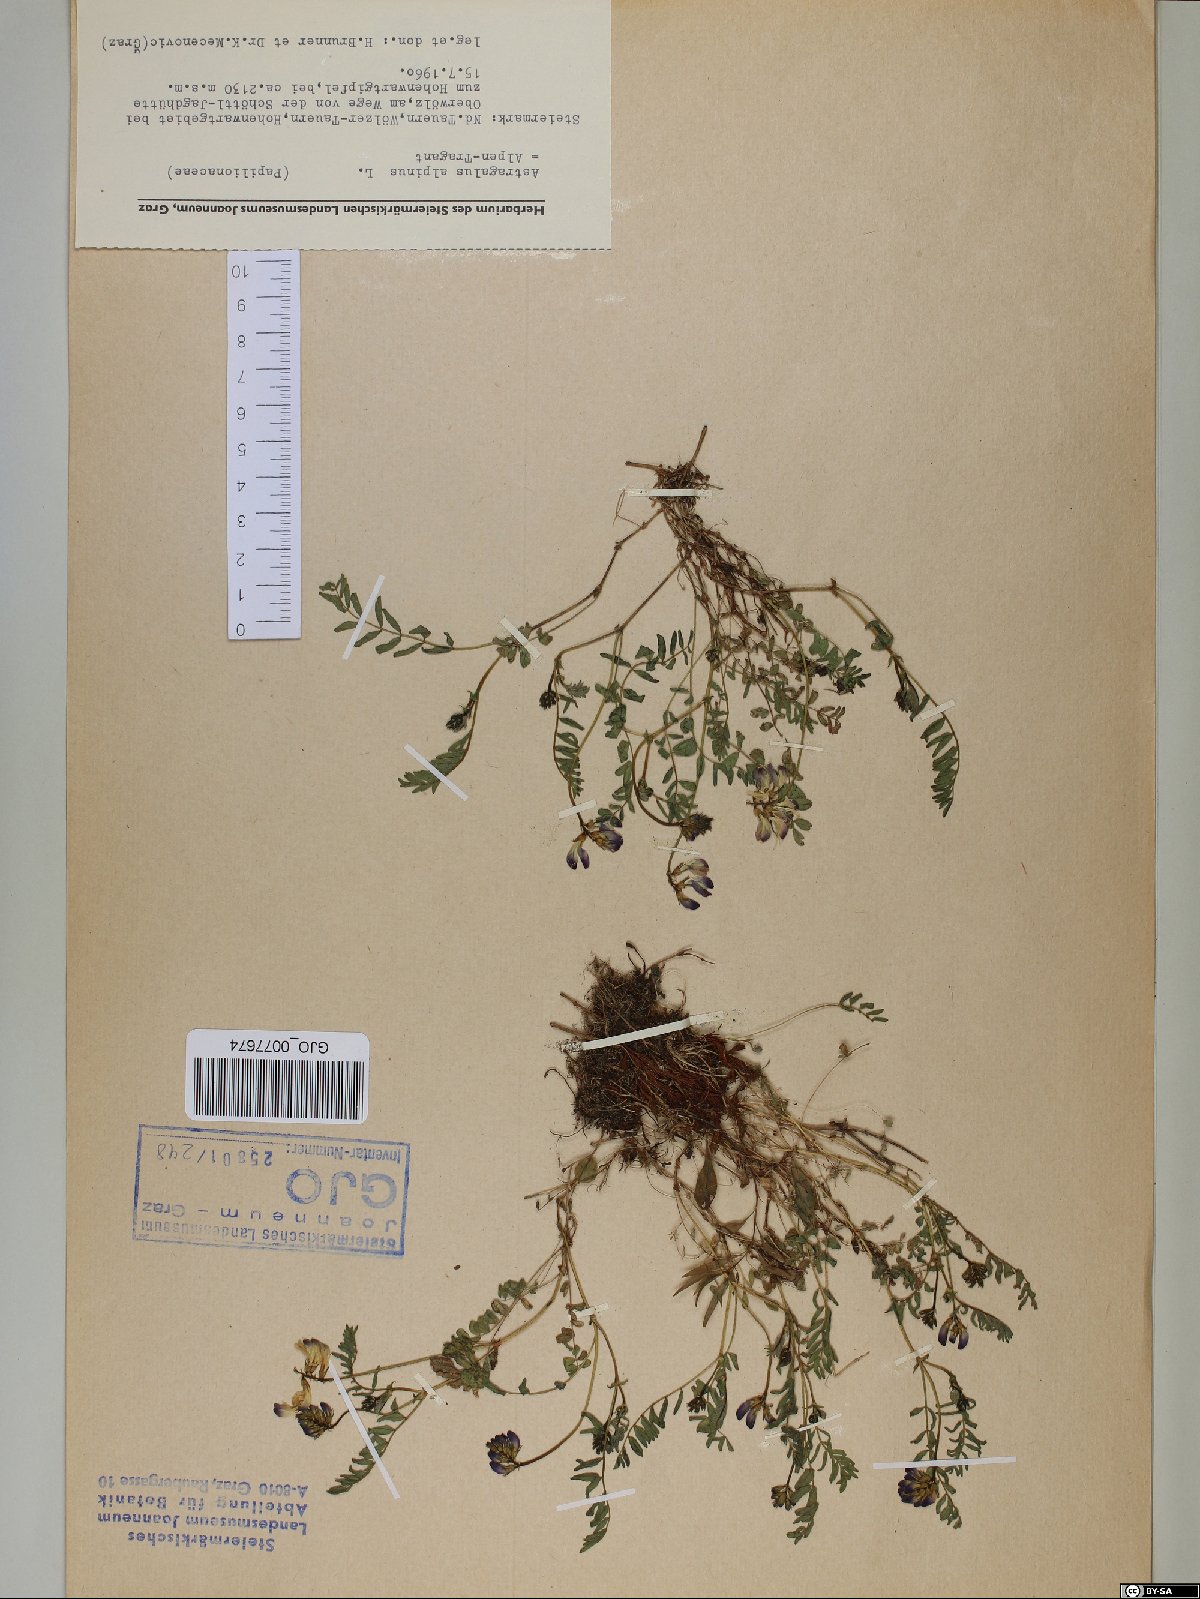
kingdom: Plantae
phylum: Tracheophyta
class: Magnoliopsida
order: Fabales
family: Fabaceae
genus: Astragalus
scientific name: Astragalus alpinus
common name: Alpine milk-vetch
